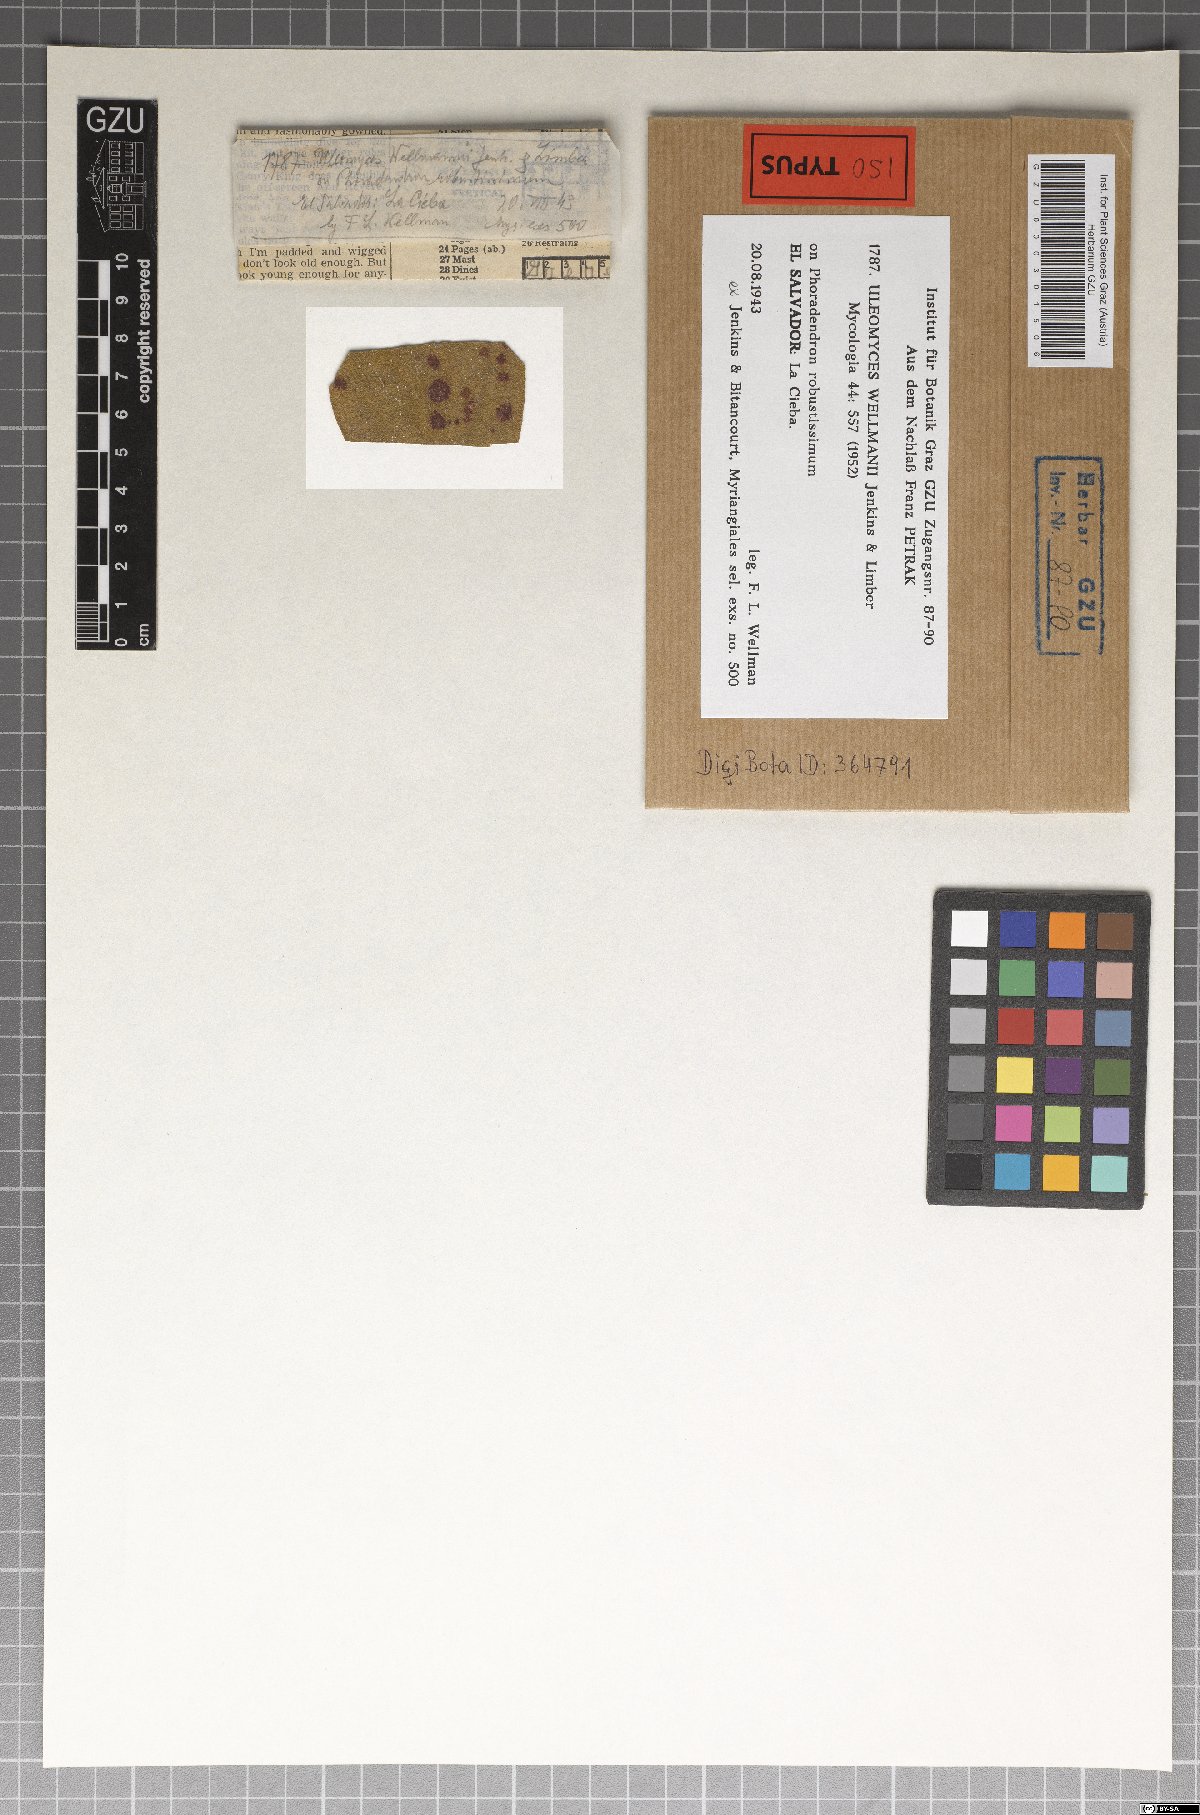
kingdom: Fungi
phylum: Ascomycota
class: Dothideomycetes
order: Myriangiales
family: Cookellaceae
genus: Uleomyces
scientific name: Uleomyces wellmanii
